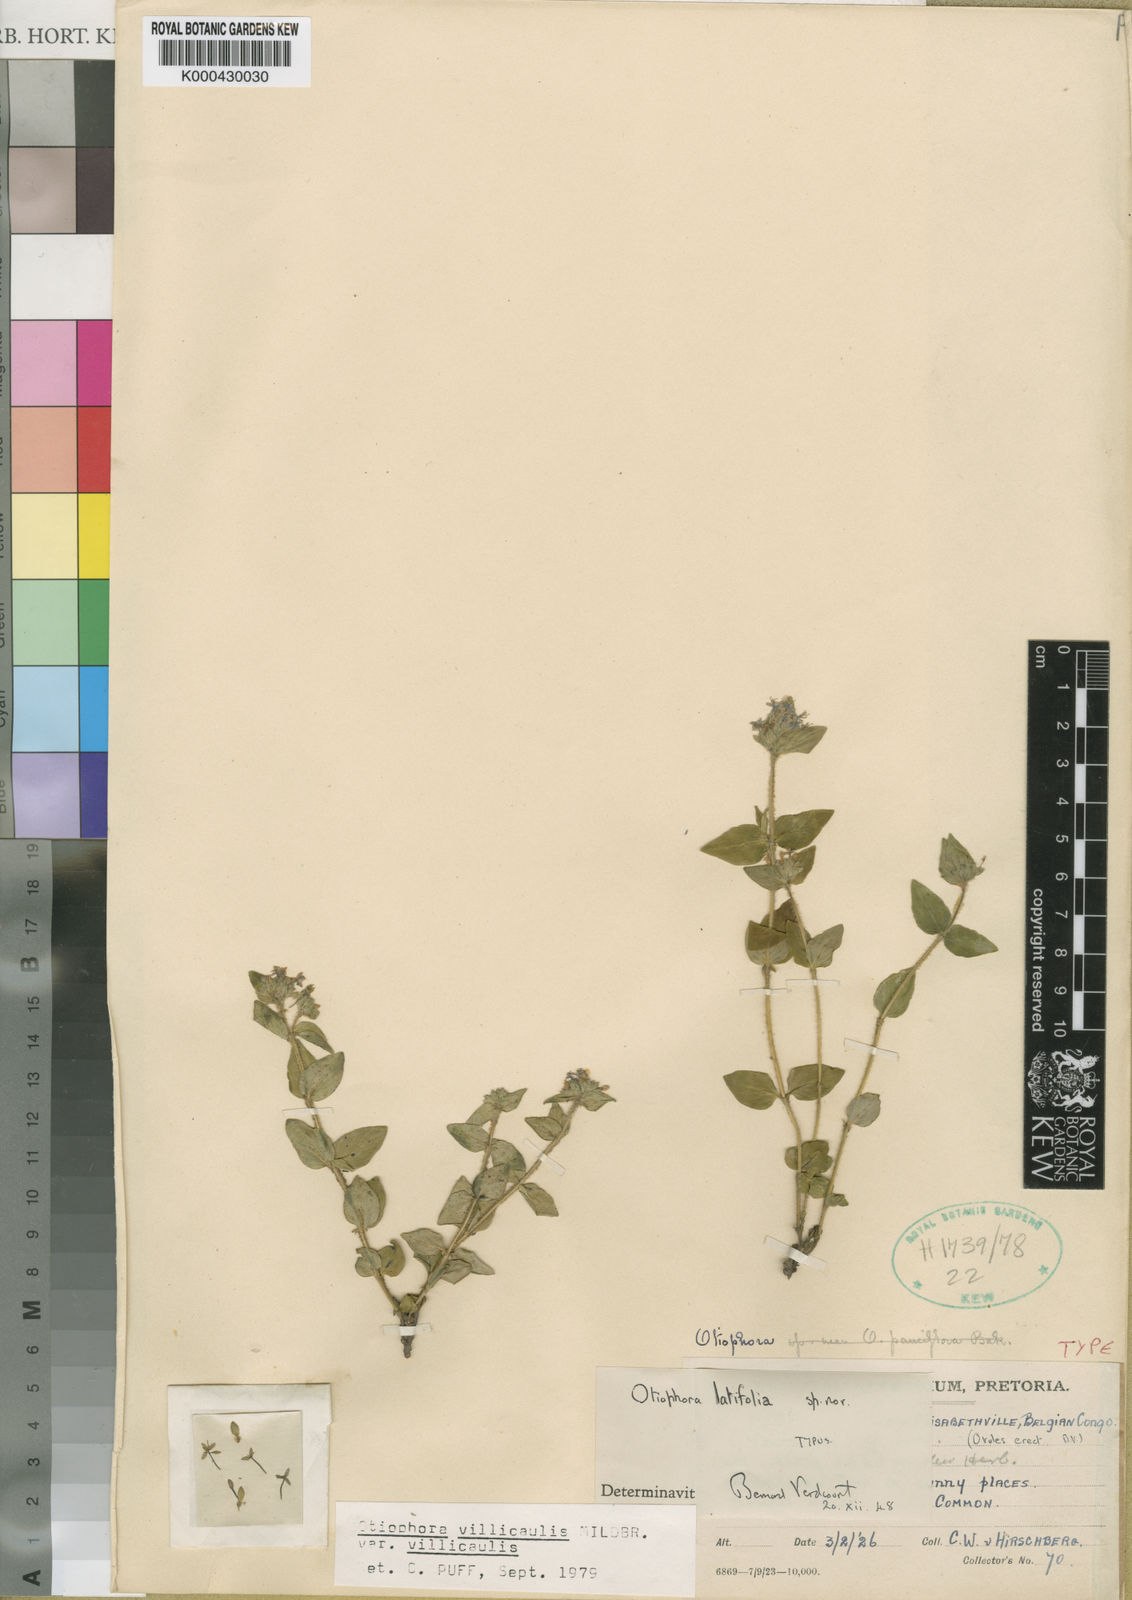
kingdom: Plantae
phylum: Tracheophyta
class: Magnoliopsida
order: Gentianales
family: Rubiaceae
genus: Otiophora
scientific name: Otiophora villicaulis
